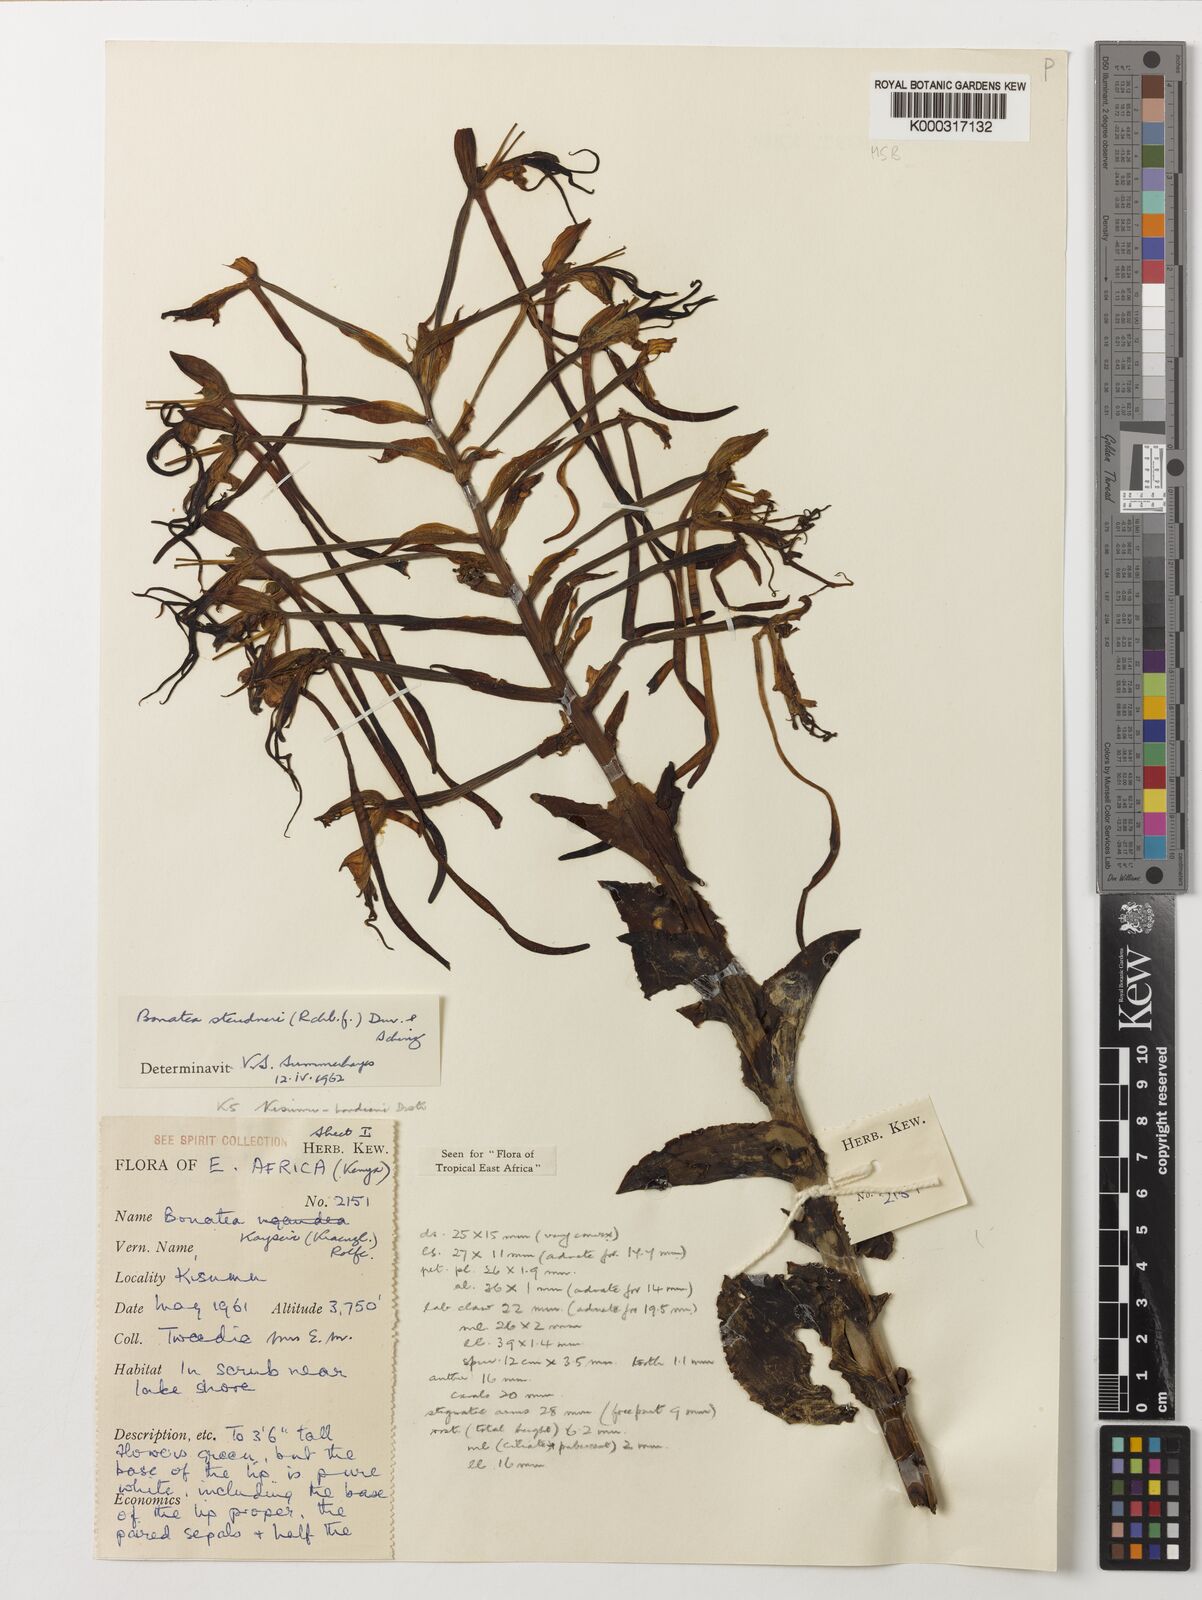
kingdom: Plantae
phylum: Tracheophyta
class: Liliopsida
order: Asparagales
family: Orchidaceae
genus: Bonatea
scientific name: Bonatea steudneri
